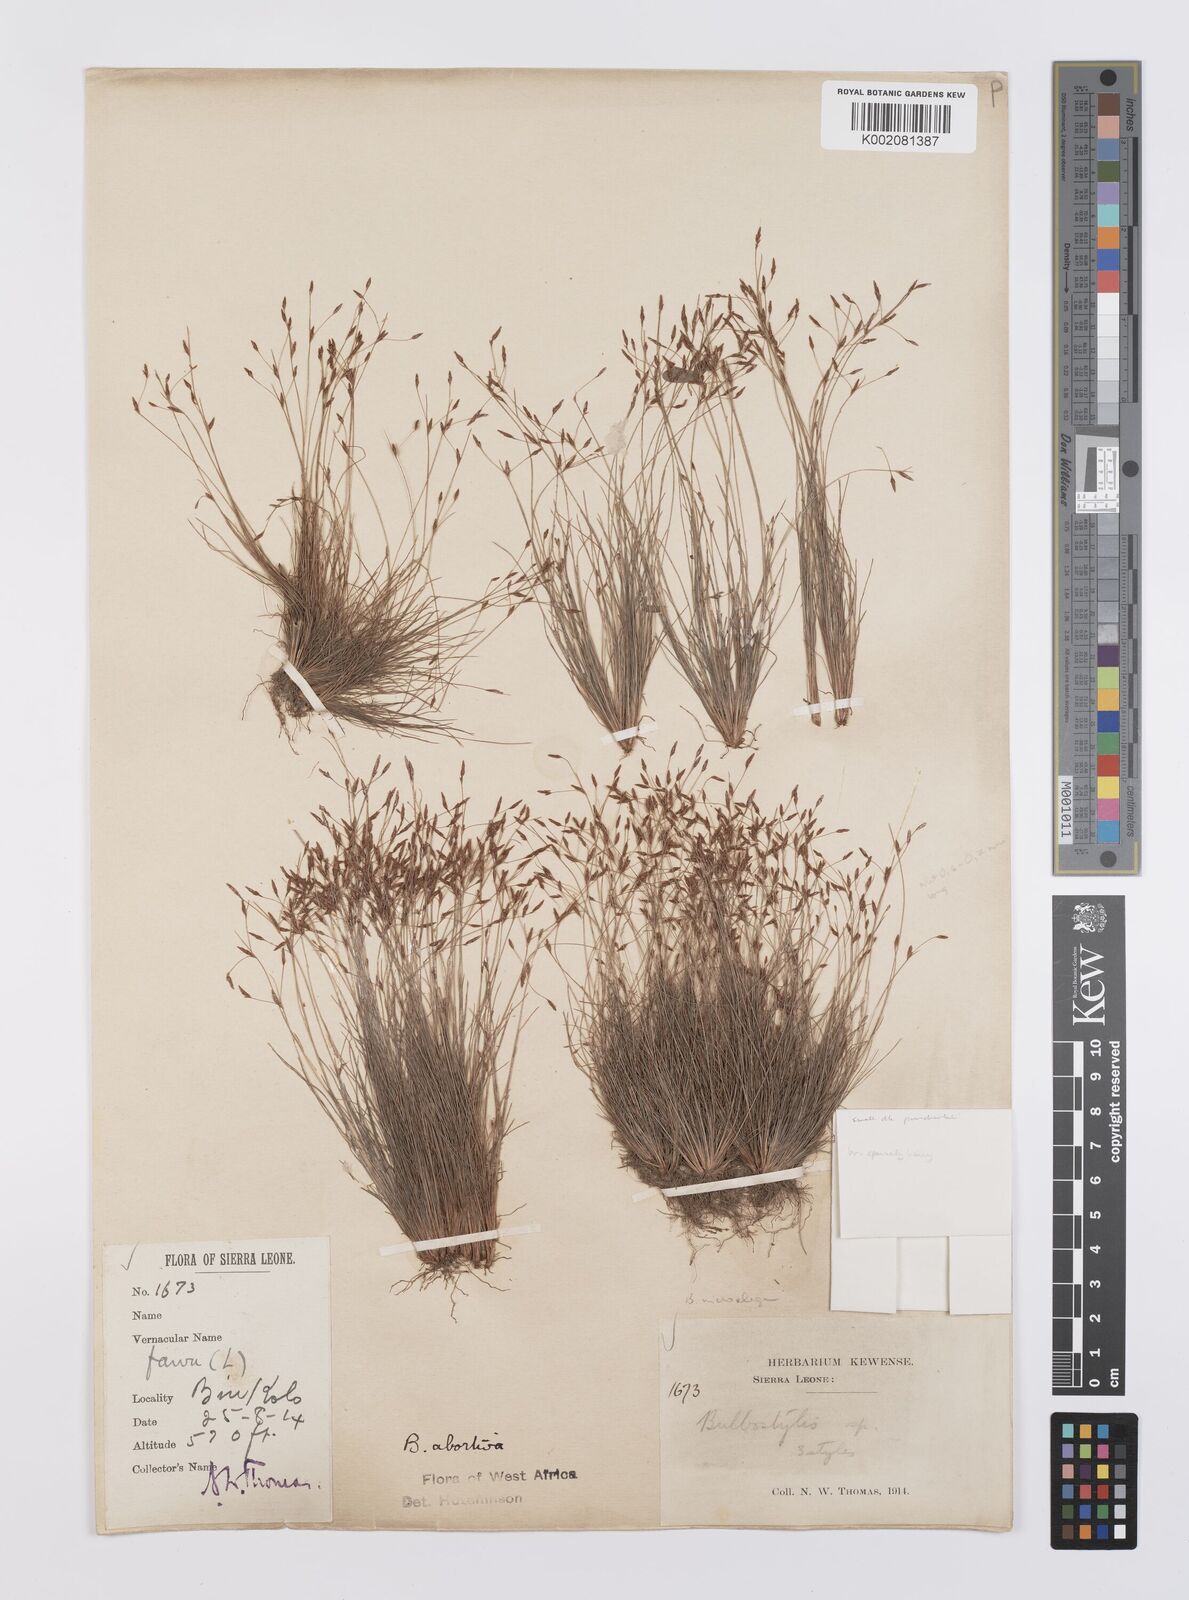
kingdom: Plantae
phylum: Tracheophyta
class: Liliopsida
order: Poales
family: Cyperaceae
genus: Bulbostylis
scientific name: Bulbostylis
